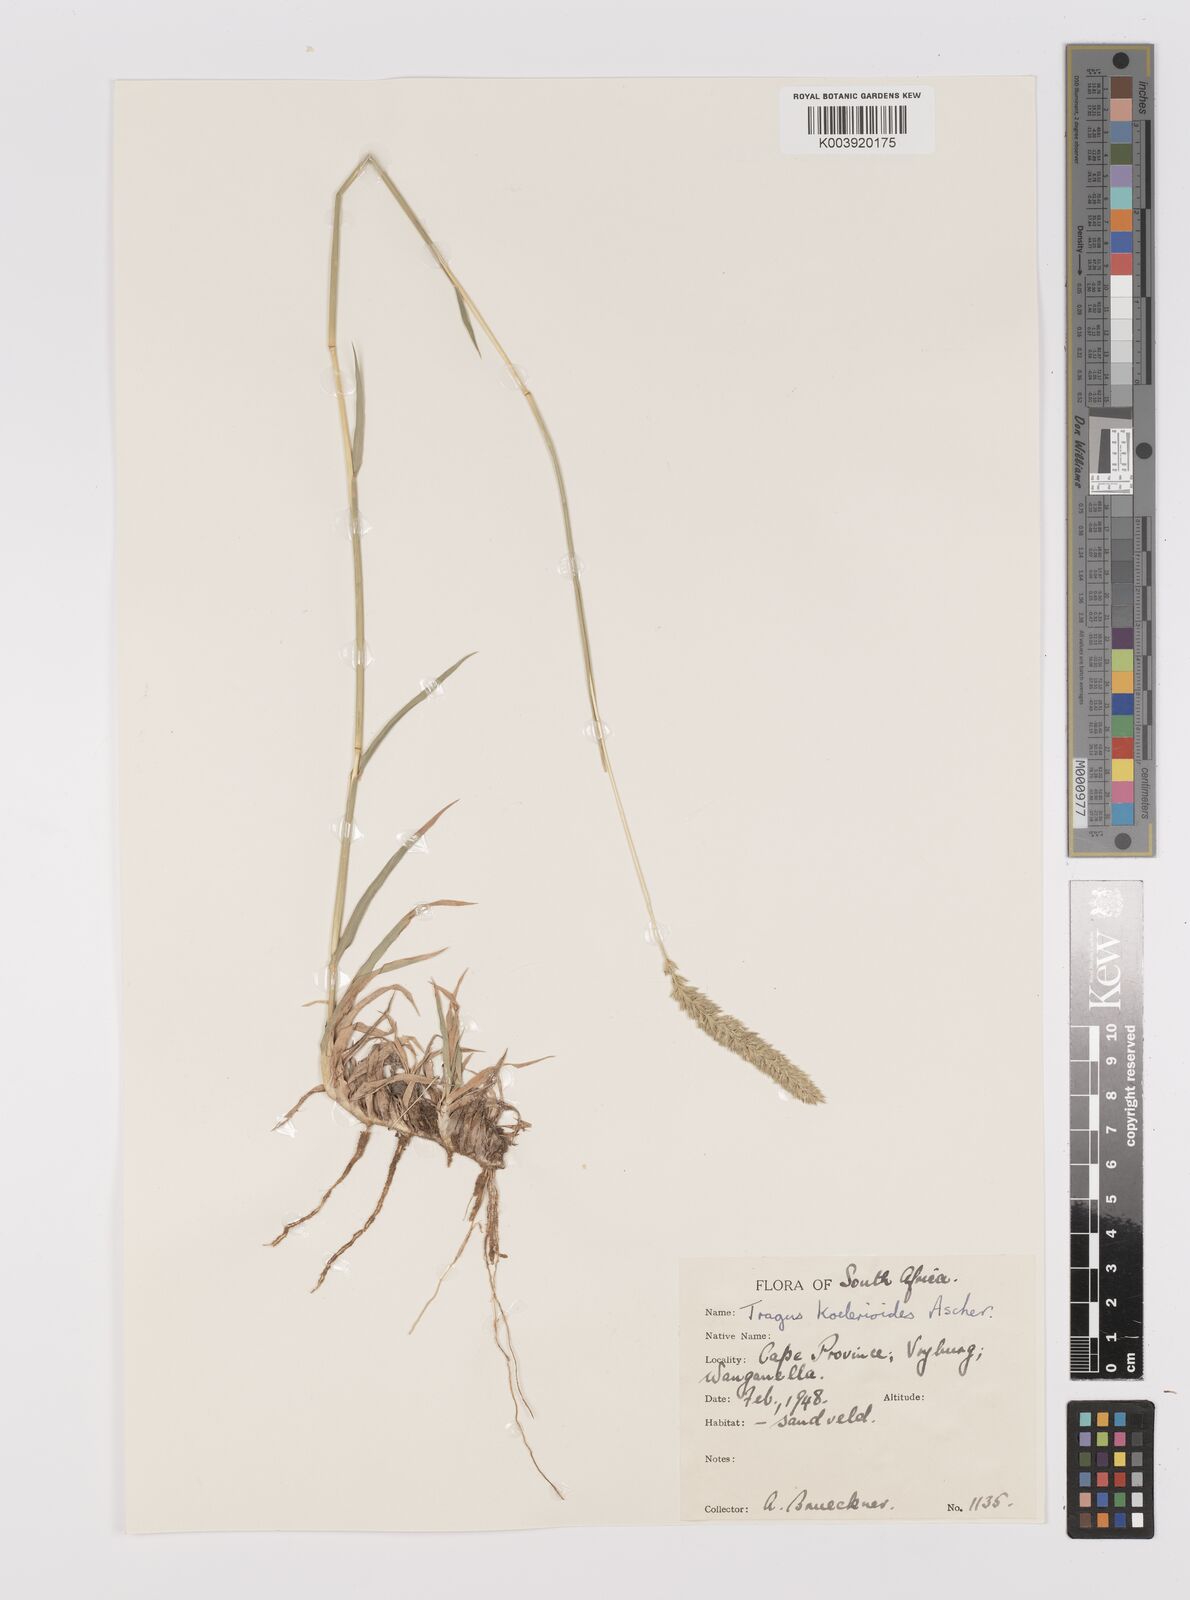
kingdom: Plantae
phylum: Tracheophyta
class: Liliopsida
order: Poales
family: Poaceae
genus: Tragus
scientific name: Tragus koelerioides
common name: Creeping carrot-seed grass
